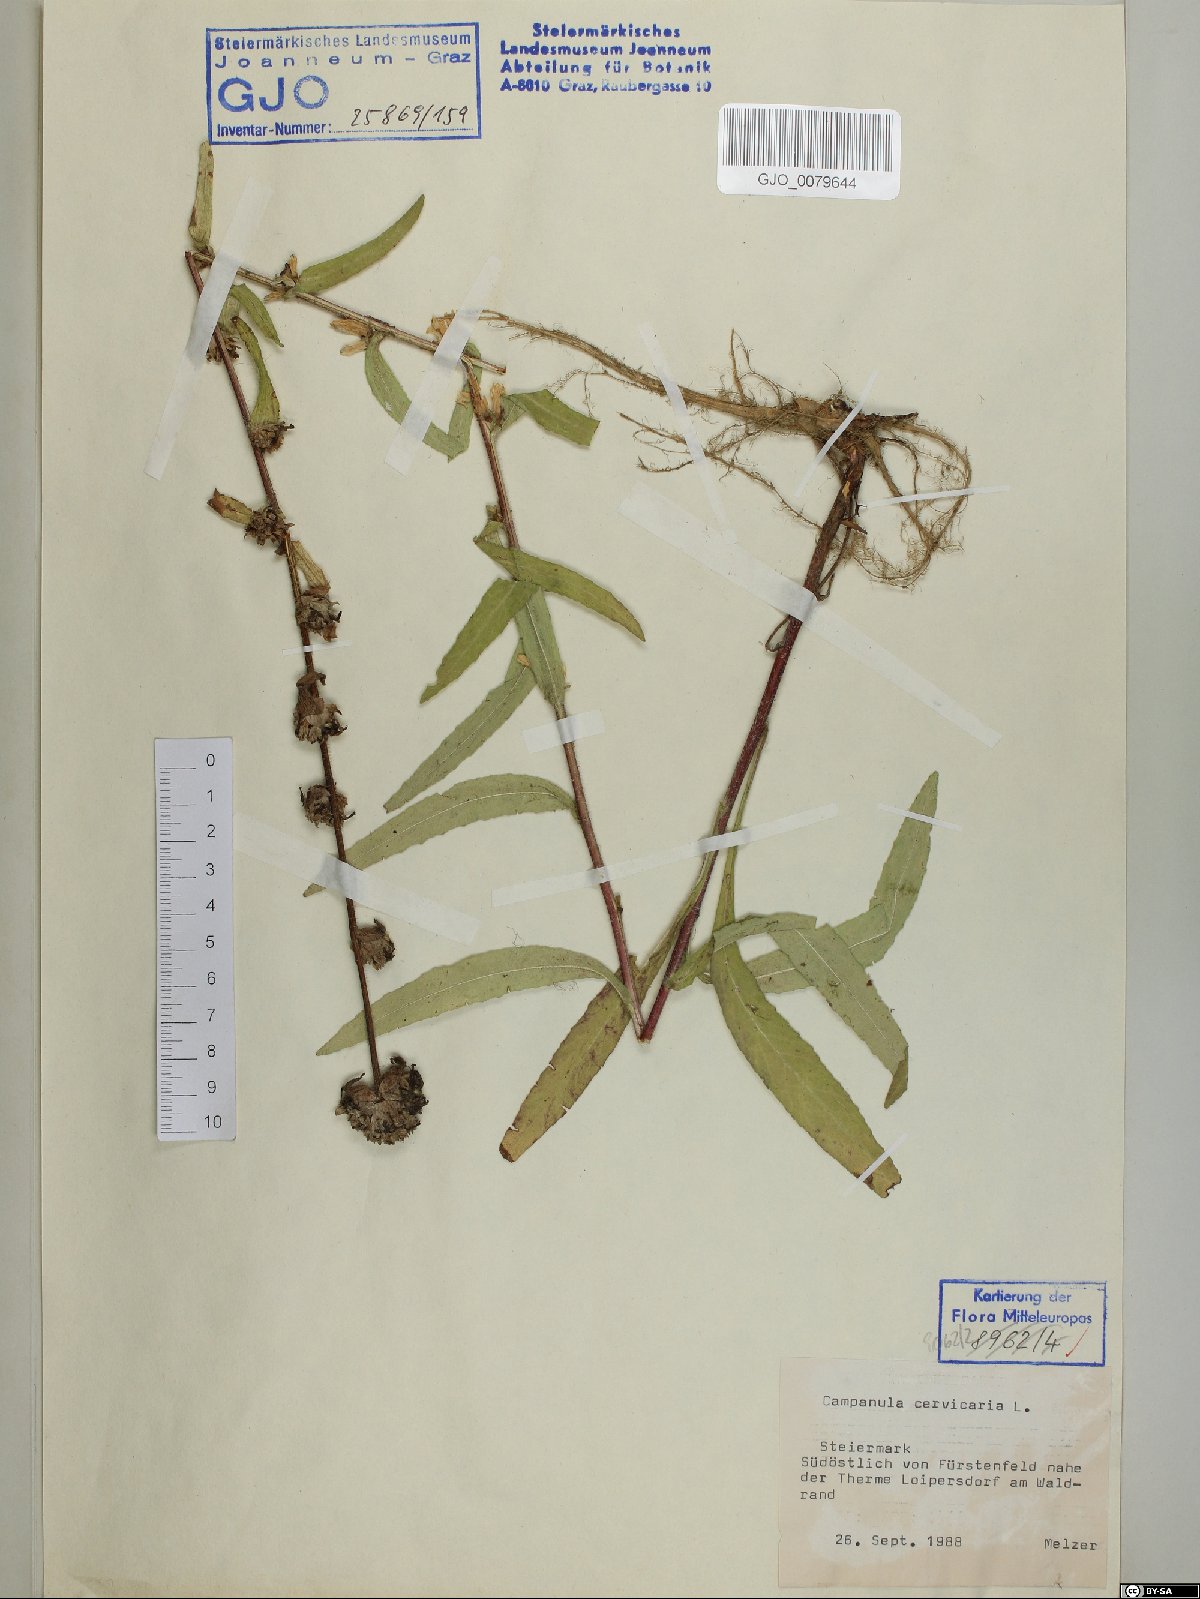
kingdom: Plantae
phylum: Tracheophyta
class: Magnoliopsida
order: Asterales
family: Campanulaceae
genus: Campanula
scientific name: Campanula cervicaria
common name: Bristly bellflower
